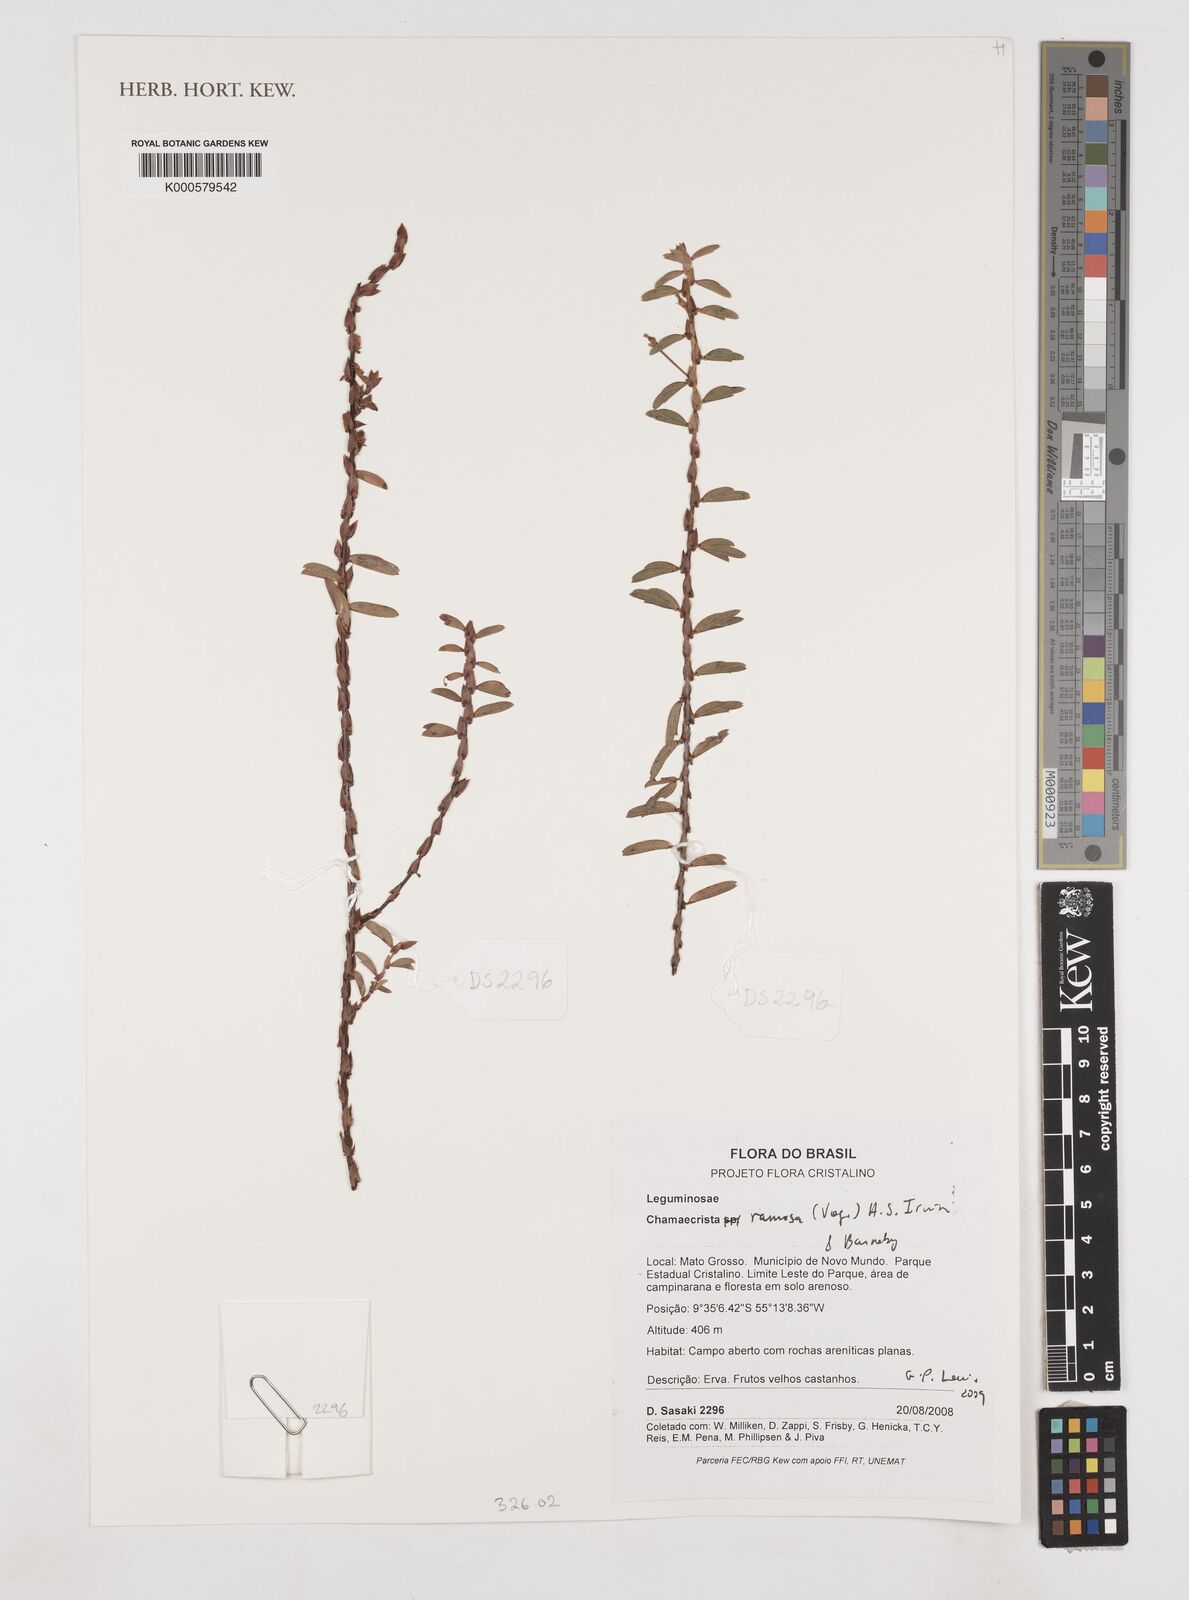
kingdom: Plantae
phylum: Tracheophyta
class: Magnoliopsida
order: Fabales
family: Fabaceae
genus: Chamaecrista
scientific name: Chamaecrista ramosa
